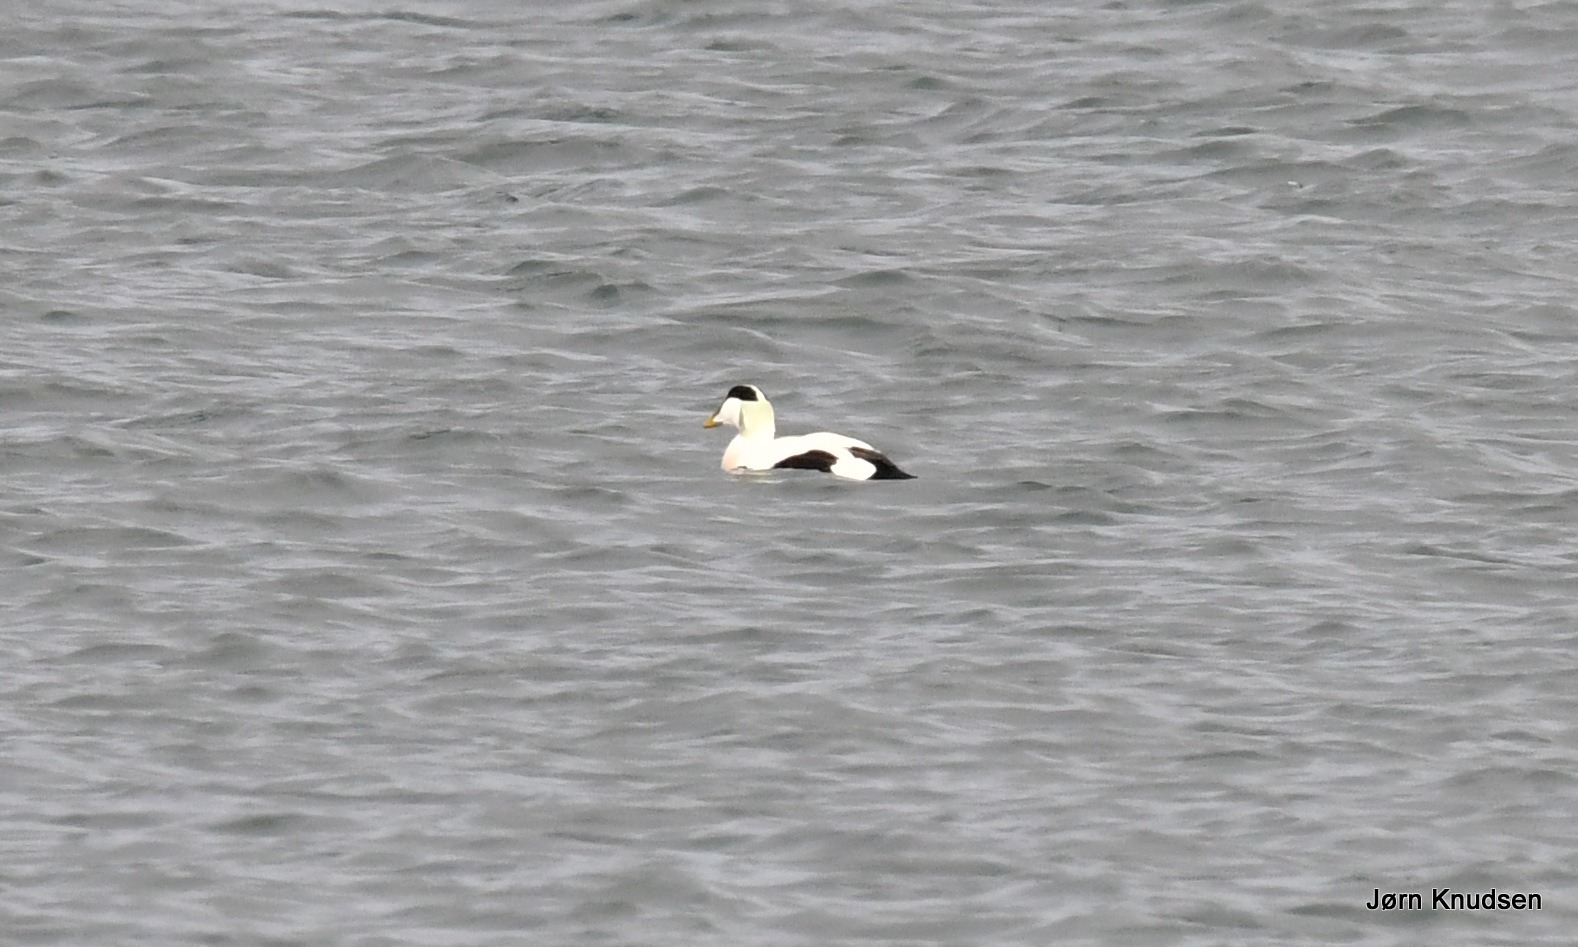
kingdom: Animalia
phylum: Chordata
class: Aves
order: Anseriformes
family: Anatidae
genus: Somateria
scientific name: Somateria mollissima
